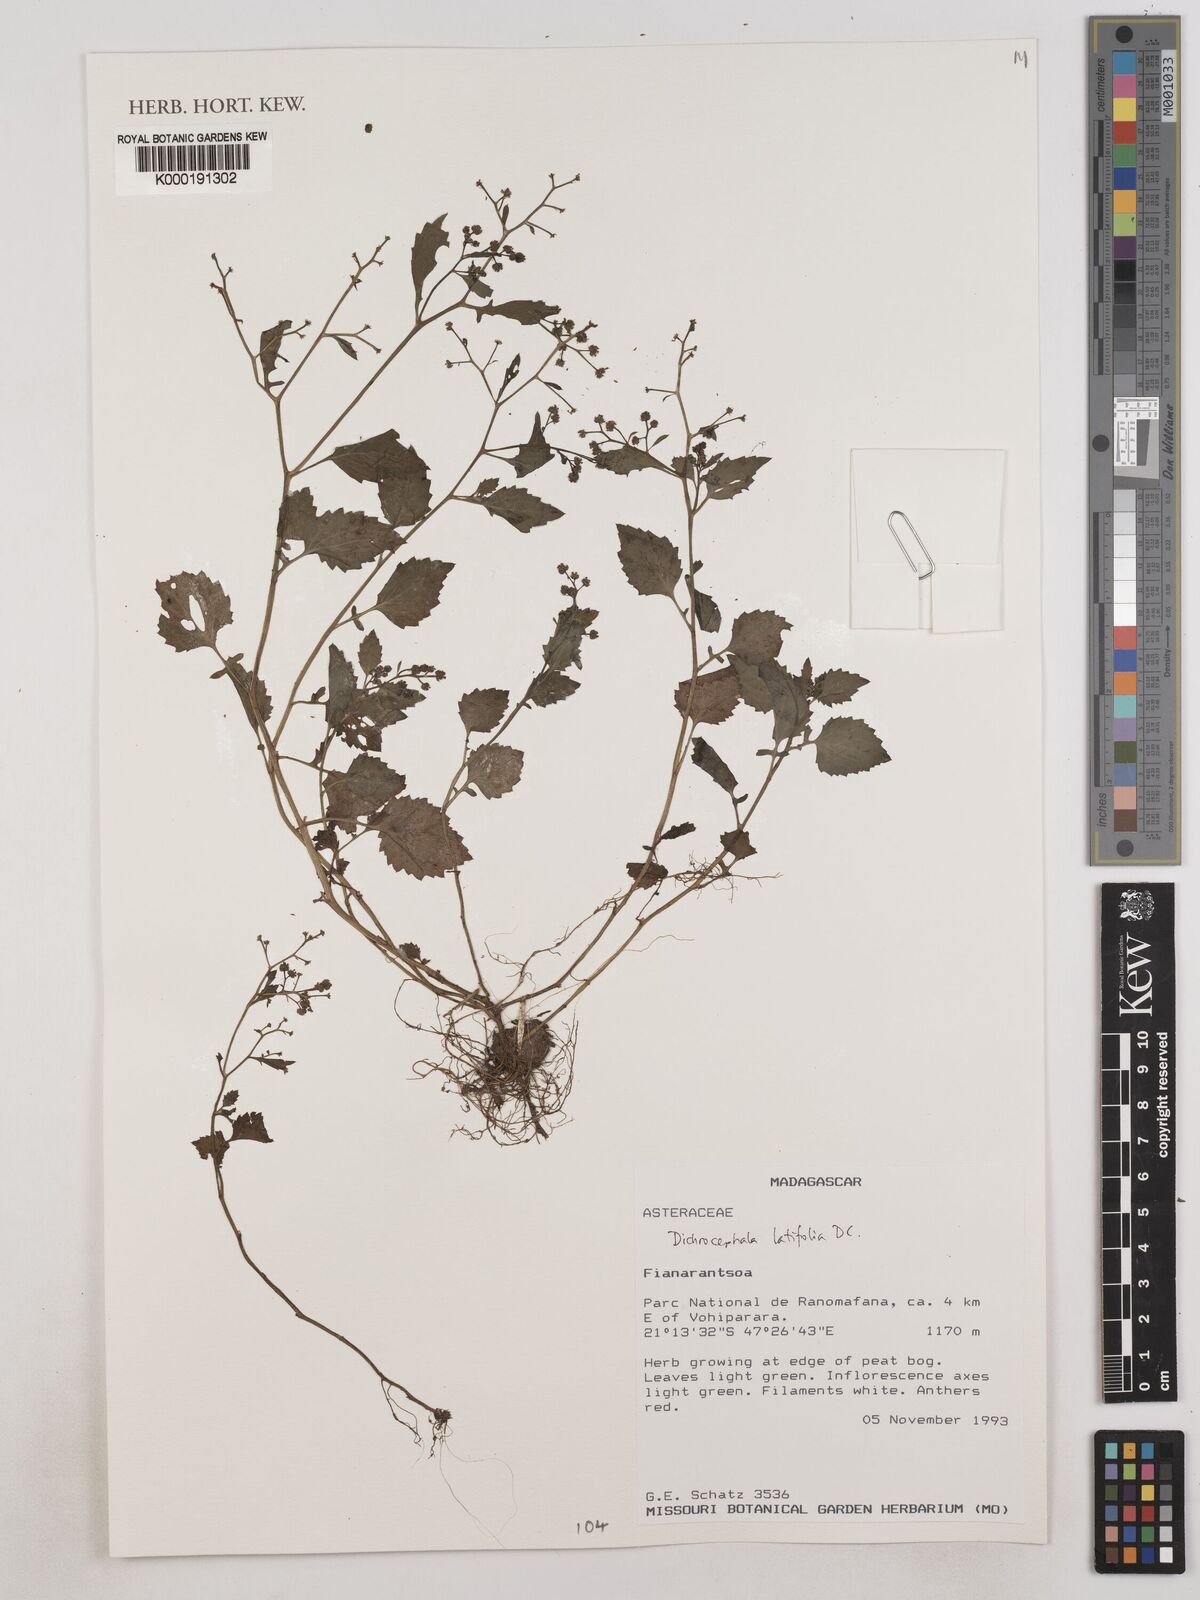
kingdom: Plantae
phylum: Tracheophyta
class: Magnoliopsida
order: Asterales
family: Asteraceae
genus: Dichrocephala
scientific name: Dichrocephala integrifolia
